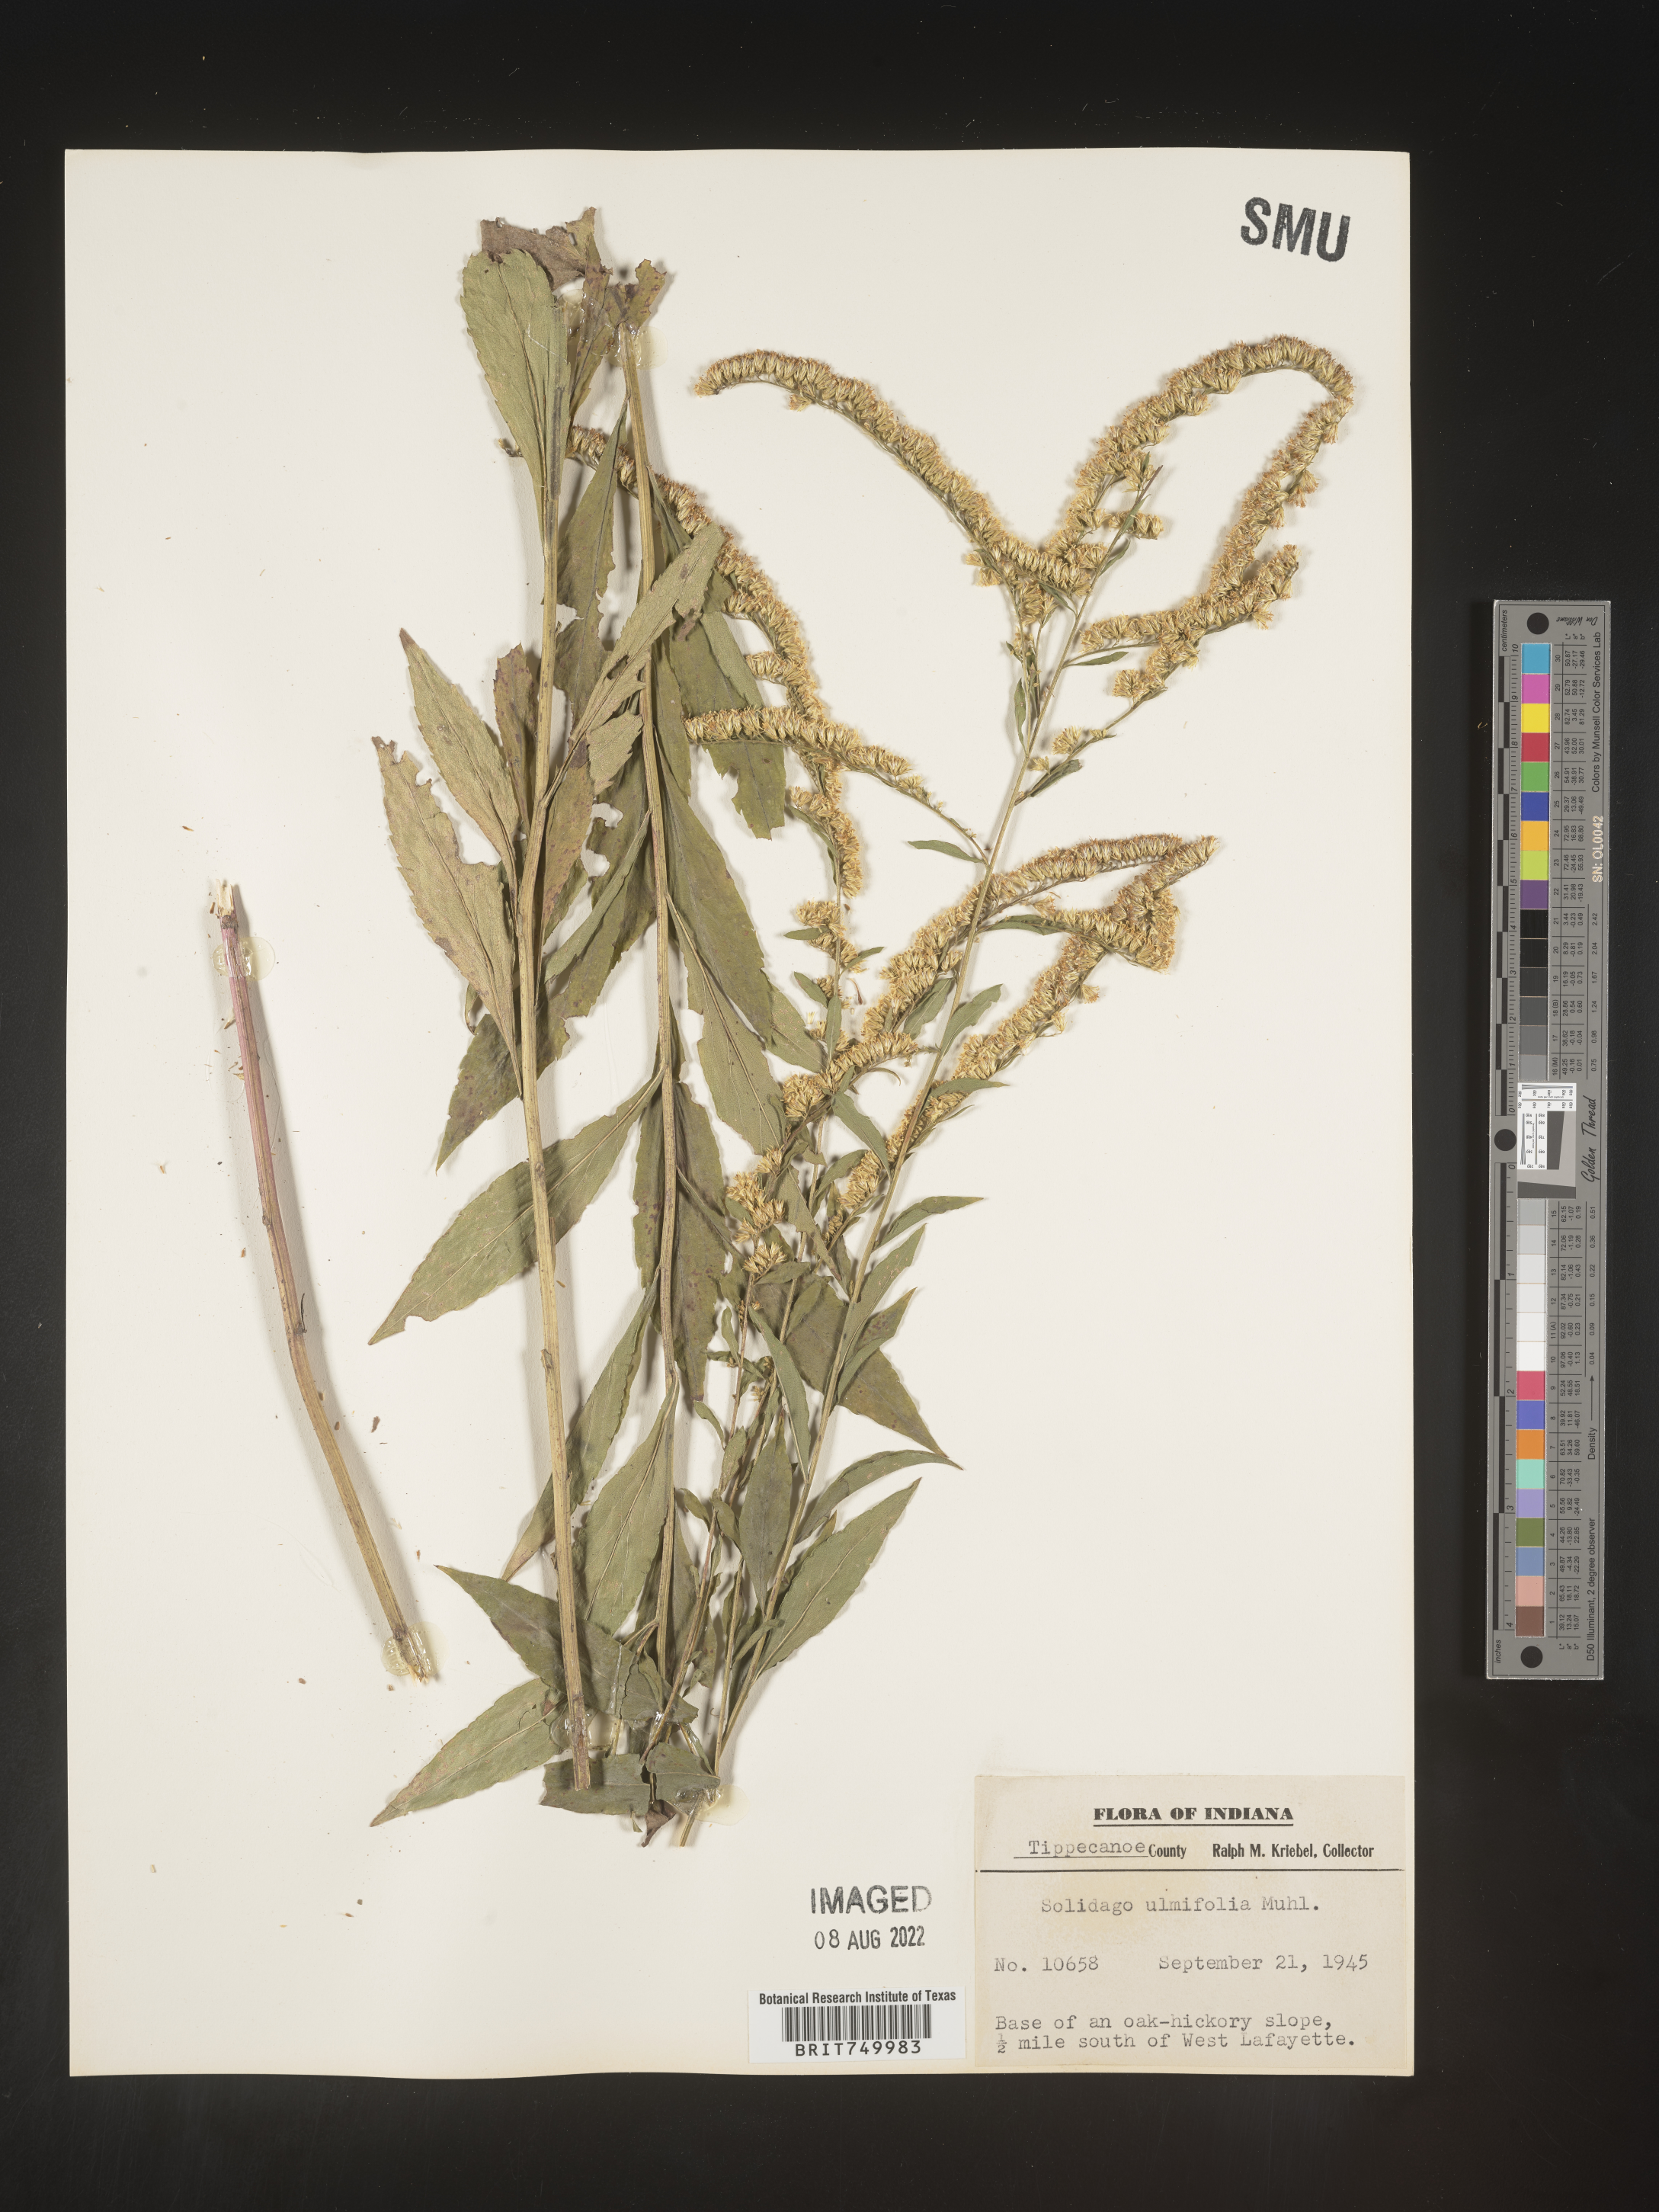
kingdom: Plantae
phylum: Tracheophyta
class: Magnoliopsida
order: Asterales
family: Asteraceae
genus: Solidago
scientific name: Solidago ulmifolia
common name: Elm-leaf goldenrod
